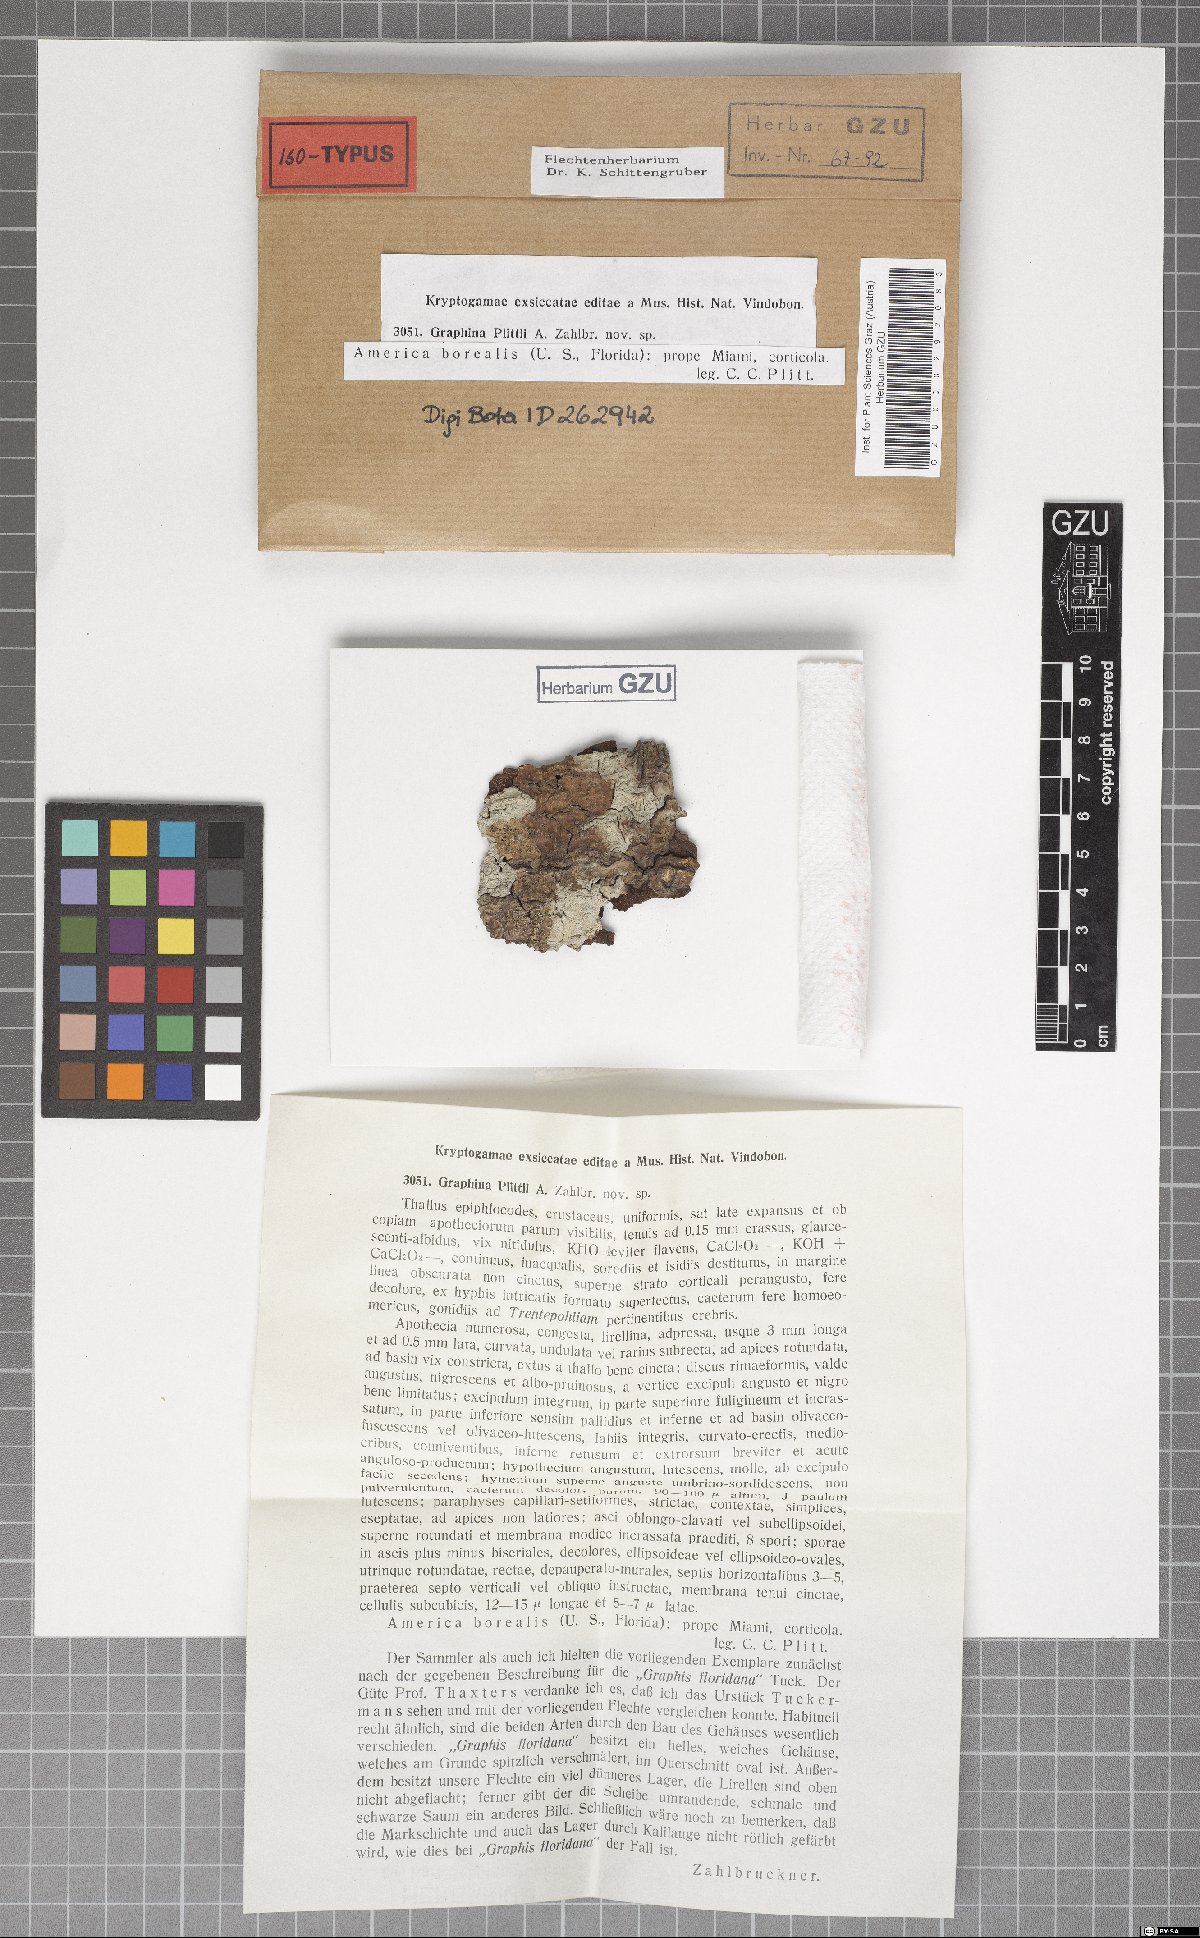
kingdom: Fungi
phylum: Ascomycota
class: Lecanoromycetes
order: Ostropales
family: Graphidaceae
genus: Graphina
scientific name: Graphina plittii
